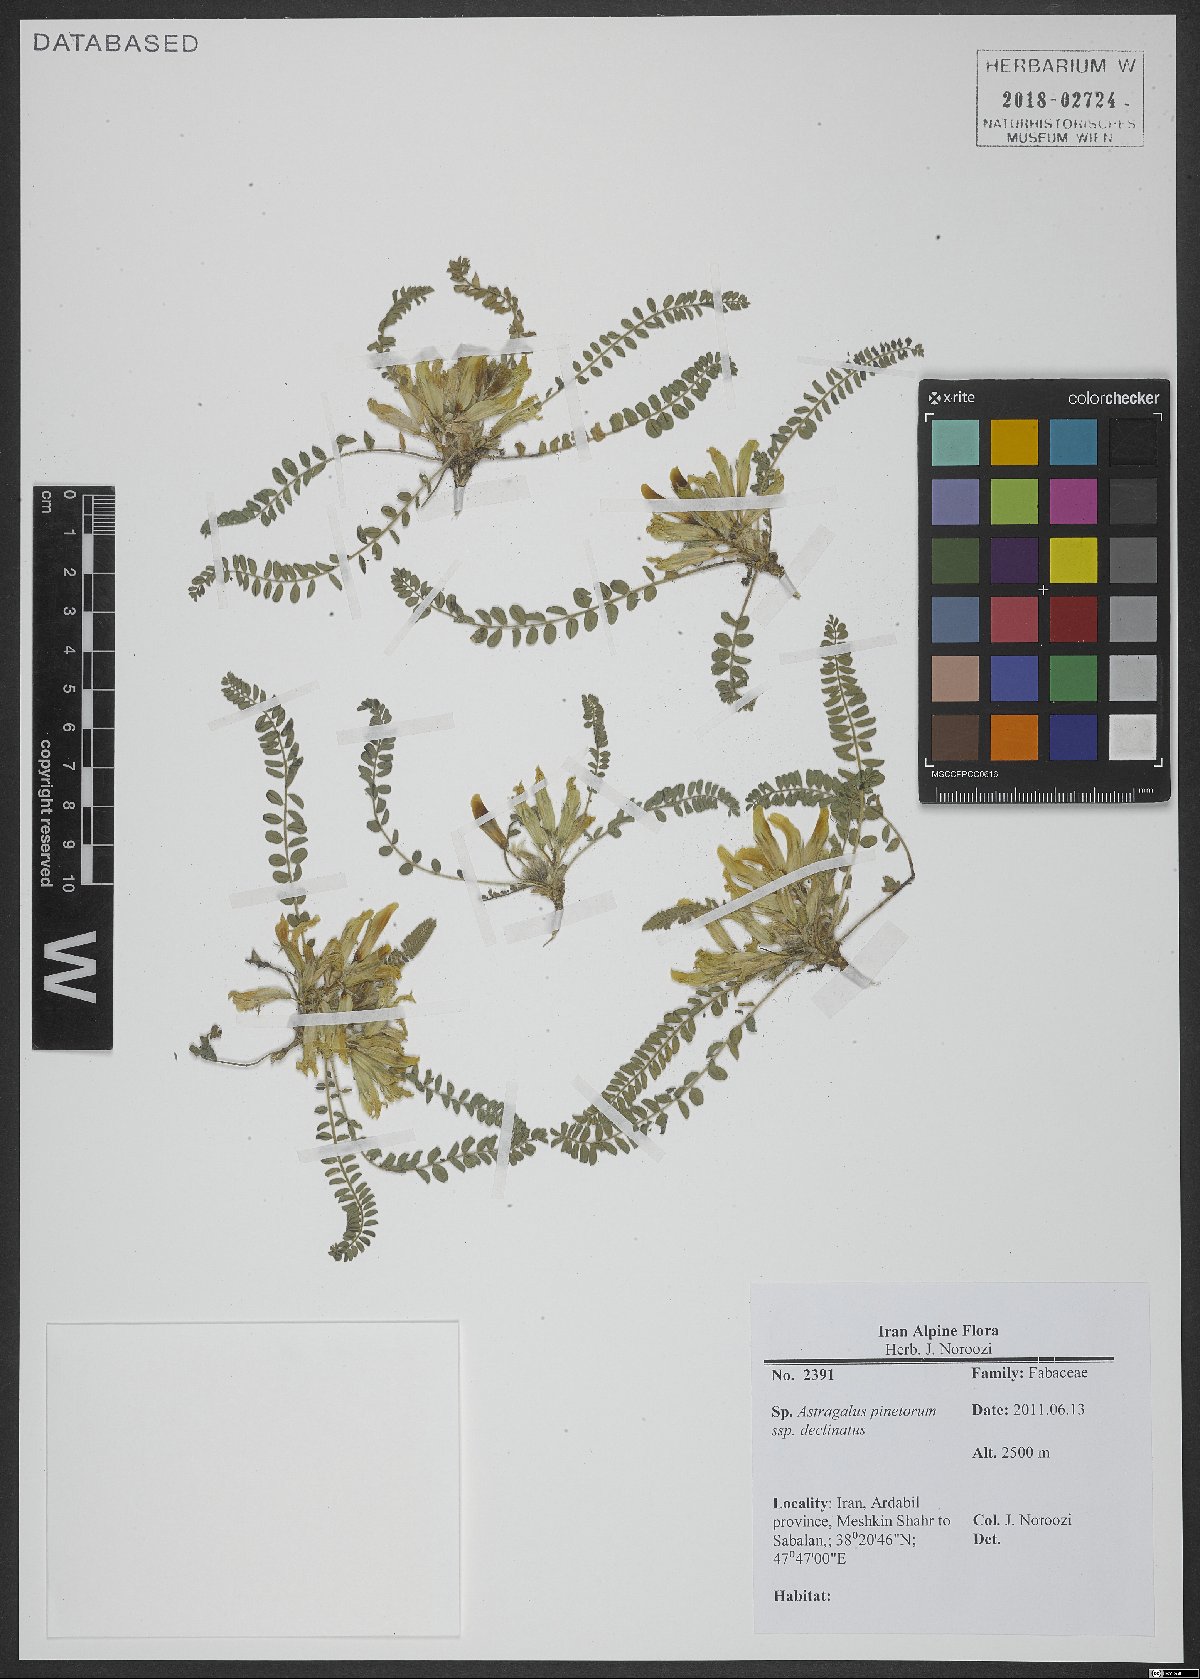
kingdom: Plantae
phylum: Tracheophyta
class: Magnoliopsida
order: Fabales
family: Fabaceae
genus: Astragalus
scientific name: Astragalus pinetorum
